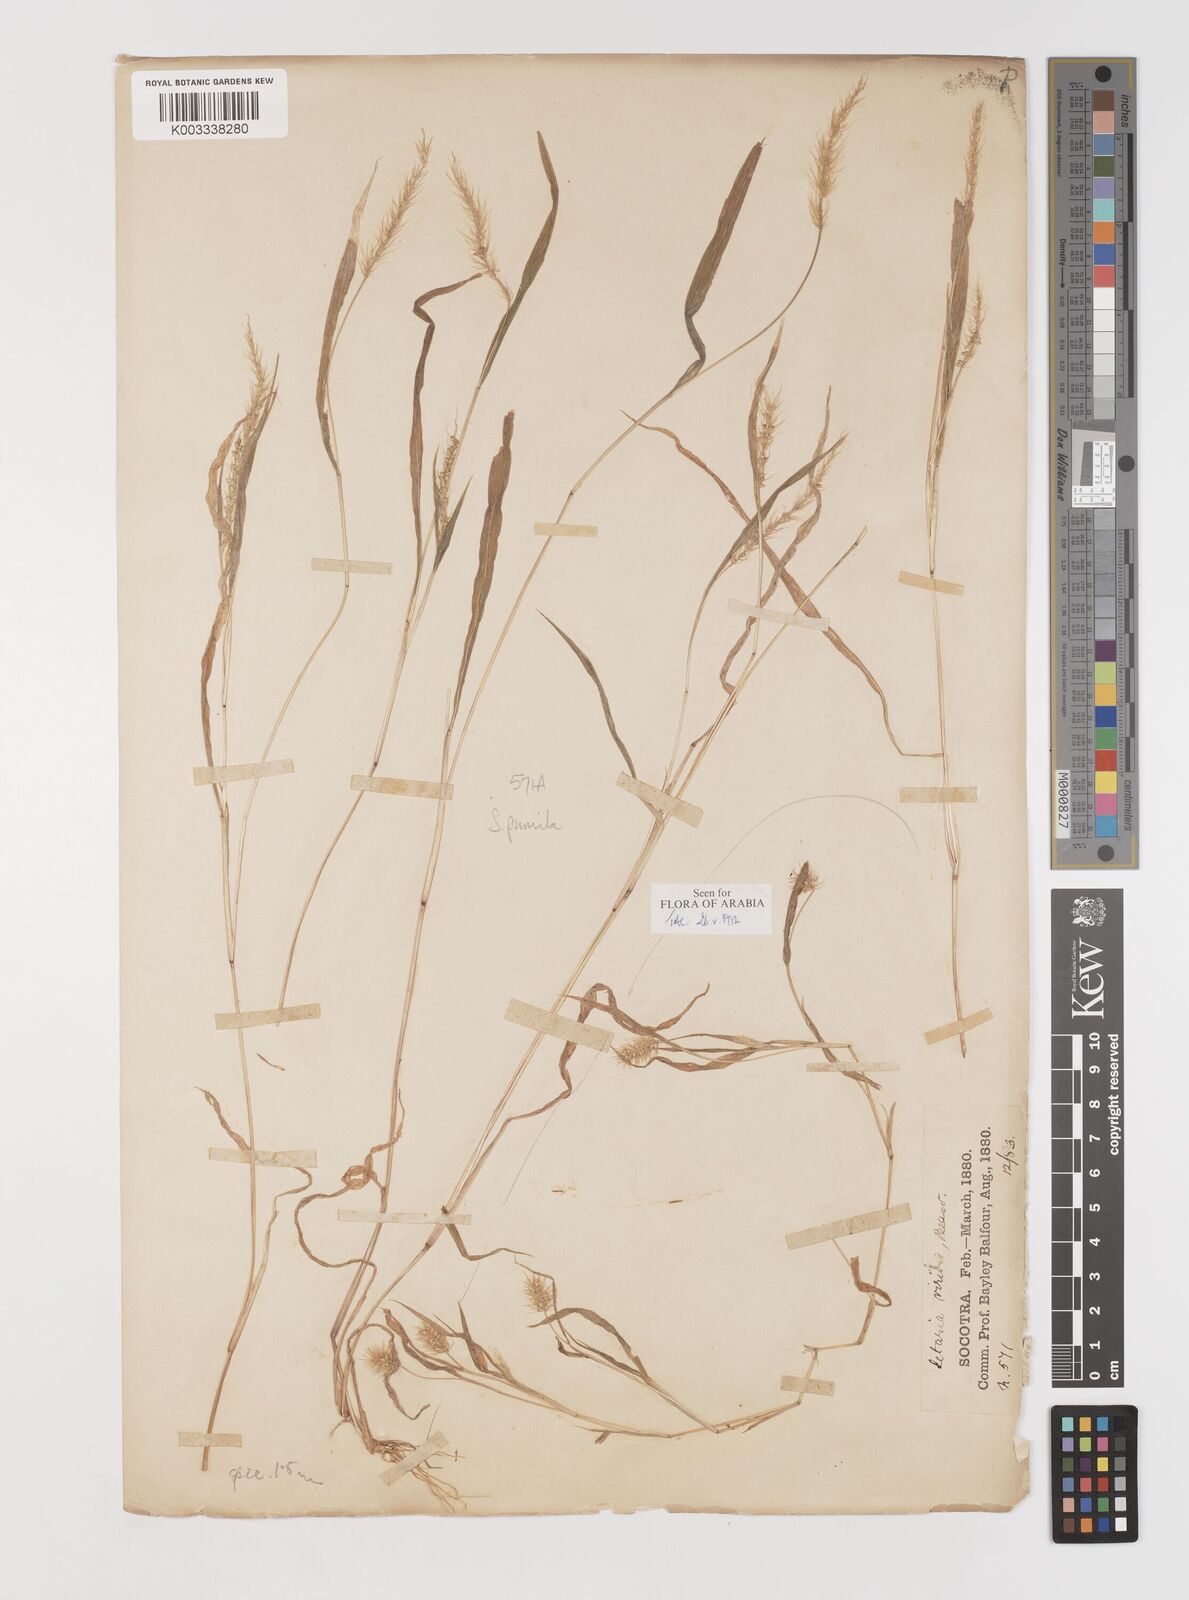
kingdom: Plantae
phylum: Tracheophyta
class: Liliopsida
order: Poales
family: Poaceae
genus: Setaria
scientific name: Setaria verticillata
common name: Hooked bristlegrass
